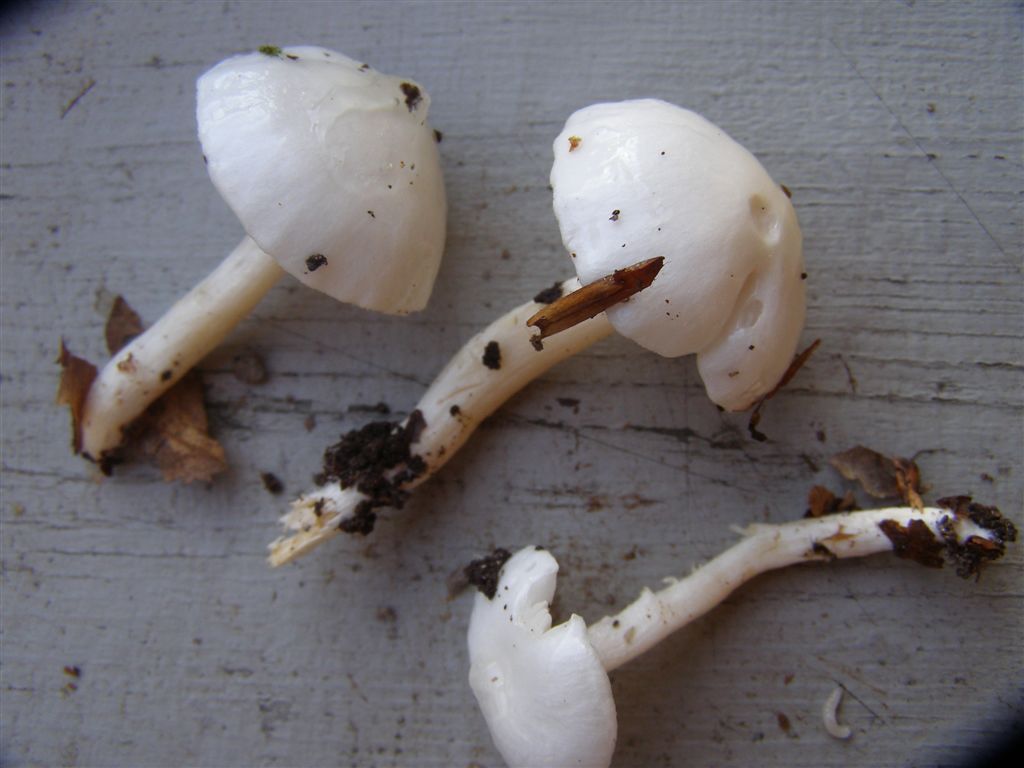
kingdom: Fungi
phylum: Basidiomycota
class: Agaricomycetes
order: Agaricales
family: Hygrophoraceae
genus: Hygrophorus
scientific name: Hygrophorus eburneus
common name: elfenbens-sneglehat
